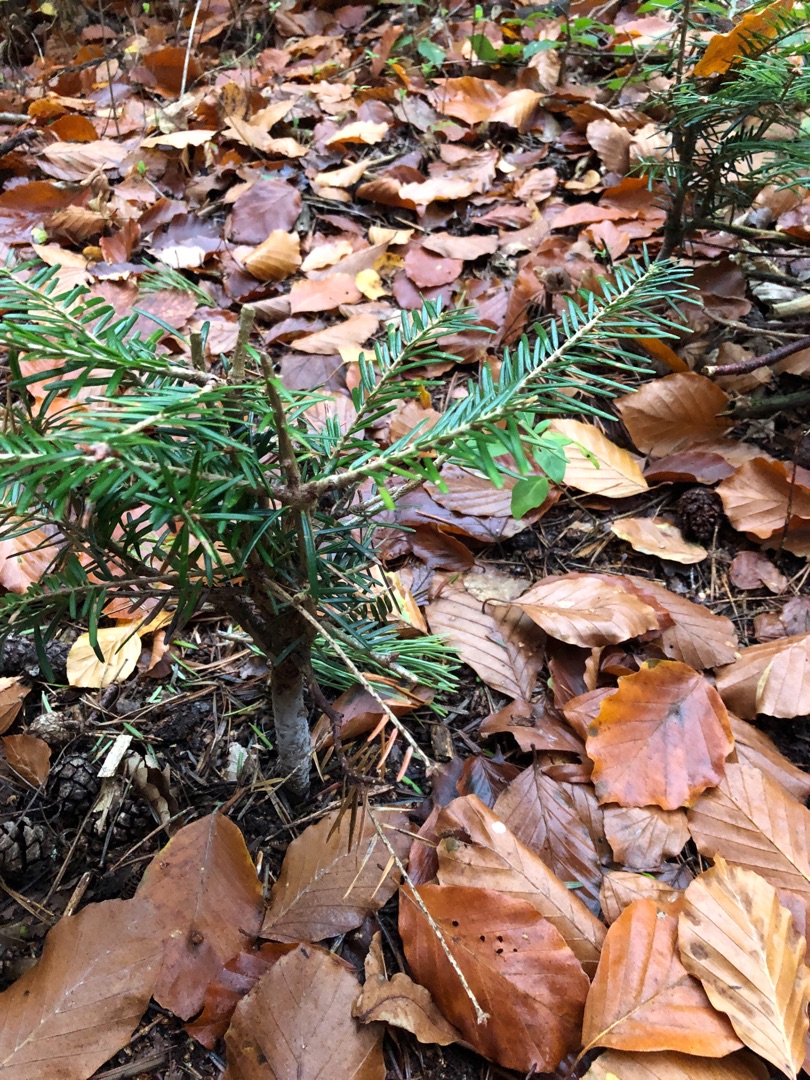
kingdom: Plantae
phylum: Tracheophyta
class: Pinopsida
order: Pinales
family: Pinaceae
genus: Abies
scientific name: Abies grandis
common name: Kæmpegran
